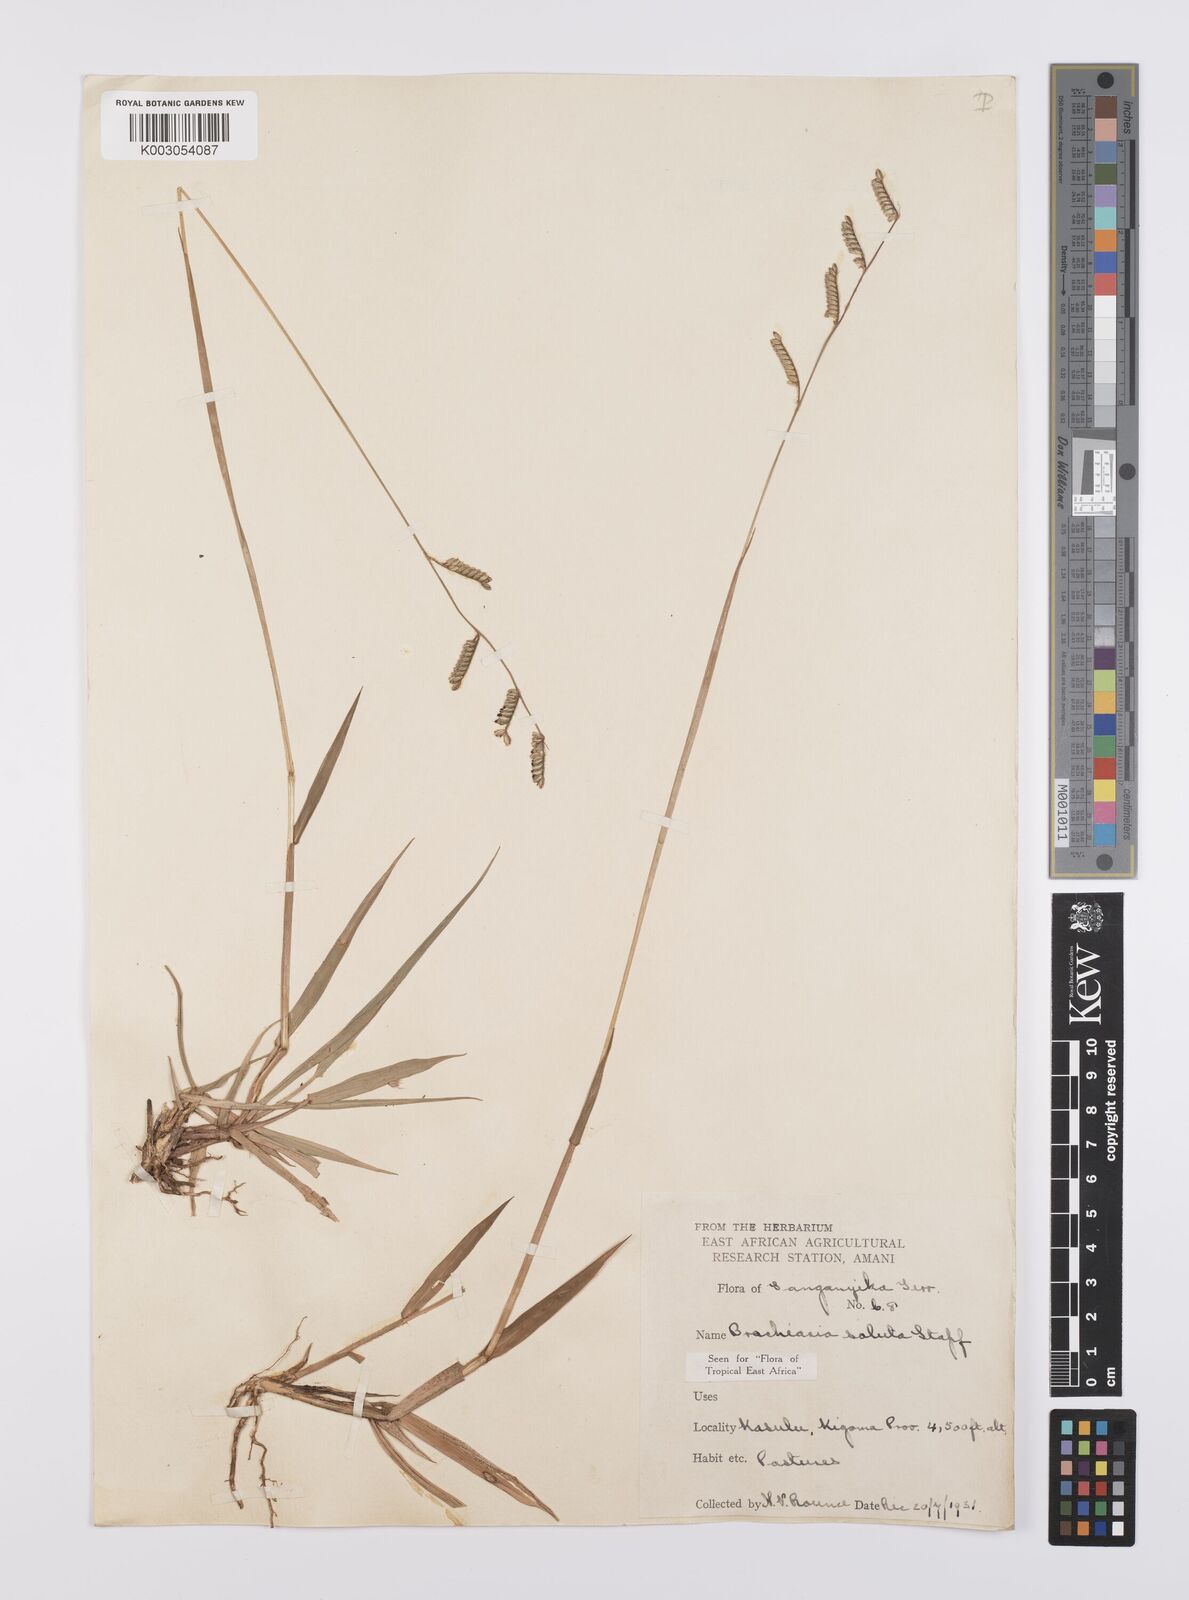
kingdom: Plantae
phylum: Tracheophyta
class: Liliopsida
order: Poales
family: Poaceae
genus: Urochloa
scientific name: Urochloa jubata
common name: Buffalograss
